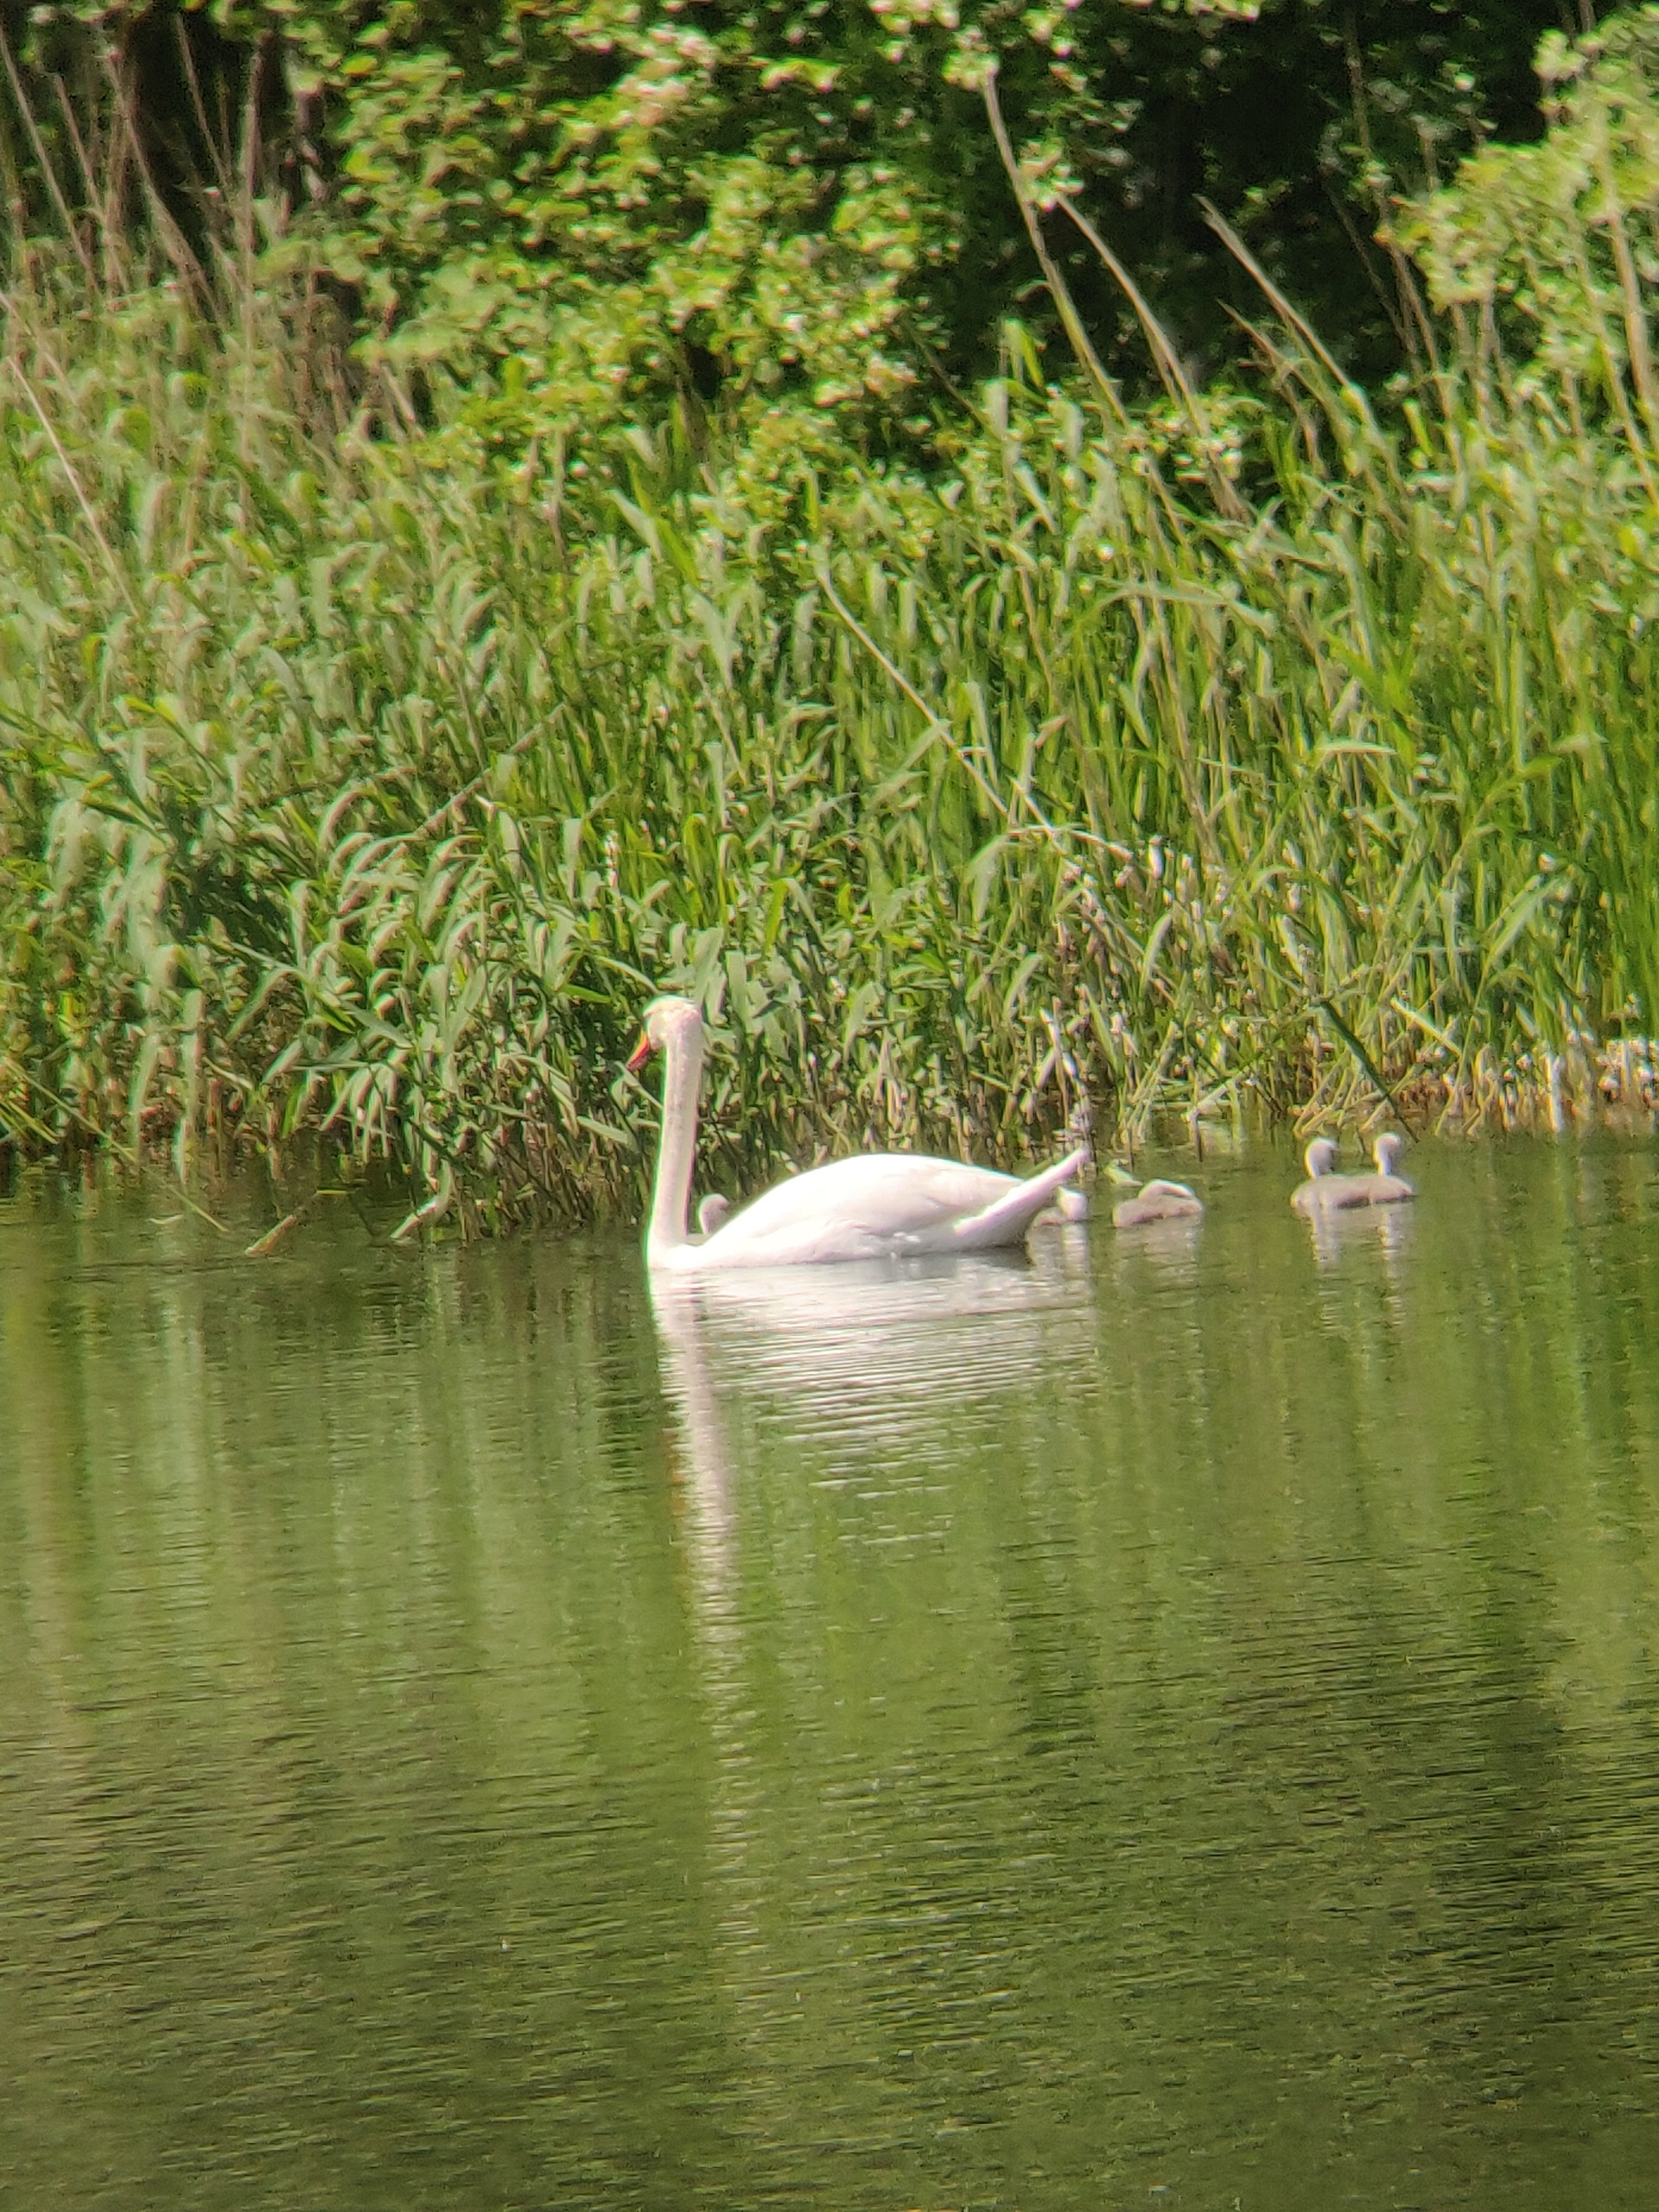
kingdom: Animalia
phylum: Chordata
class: Aves
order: Anseriformes
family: Anatidae
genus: Cygnus
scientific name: Cygnus olor
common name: Knopsvane
